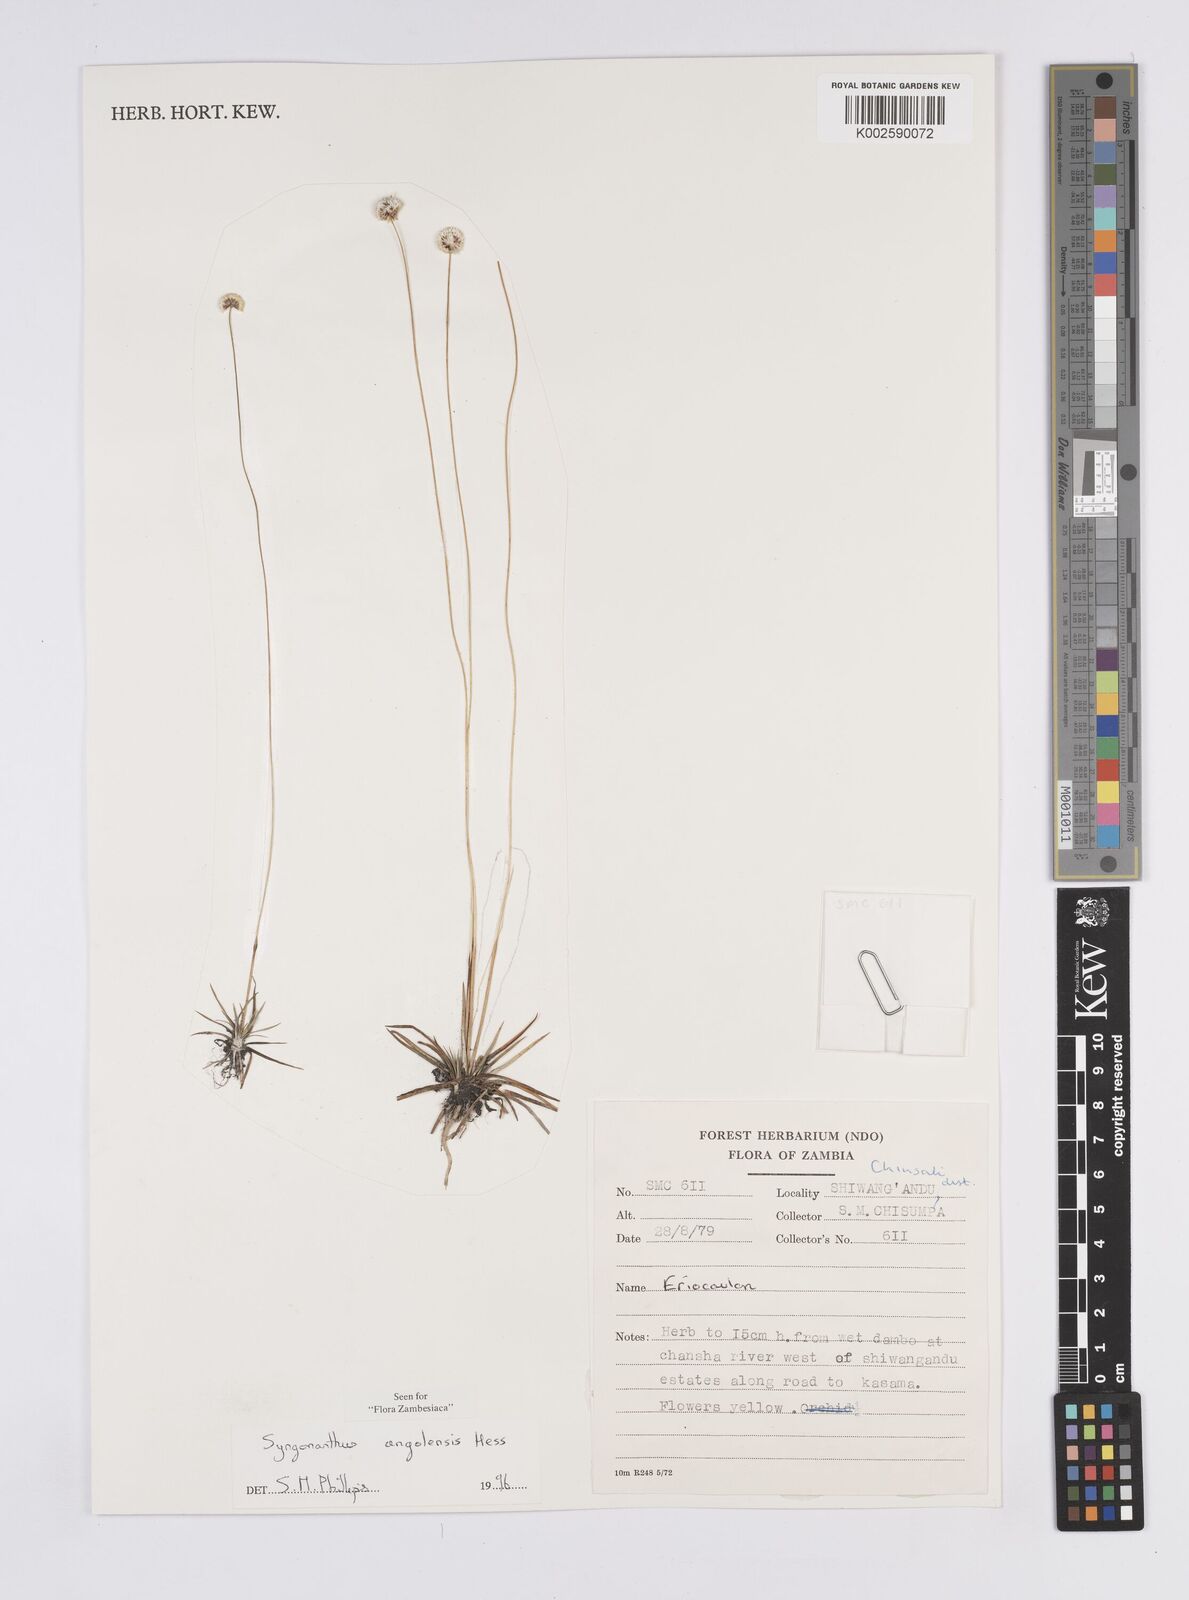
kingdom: Plantae
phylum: Tracheophyta
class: Liliopsida
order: Poales
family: Eriocaulaceae
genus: Syngonanthus
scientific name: Syngonanthus angolensis
